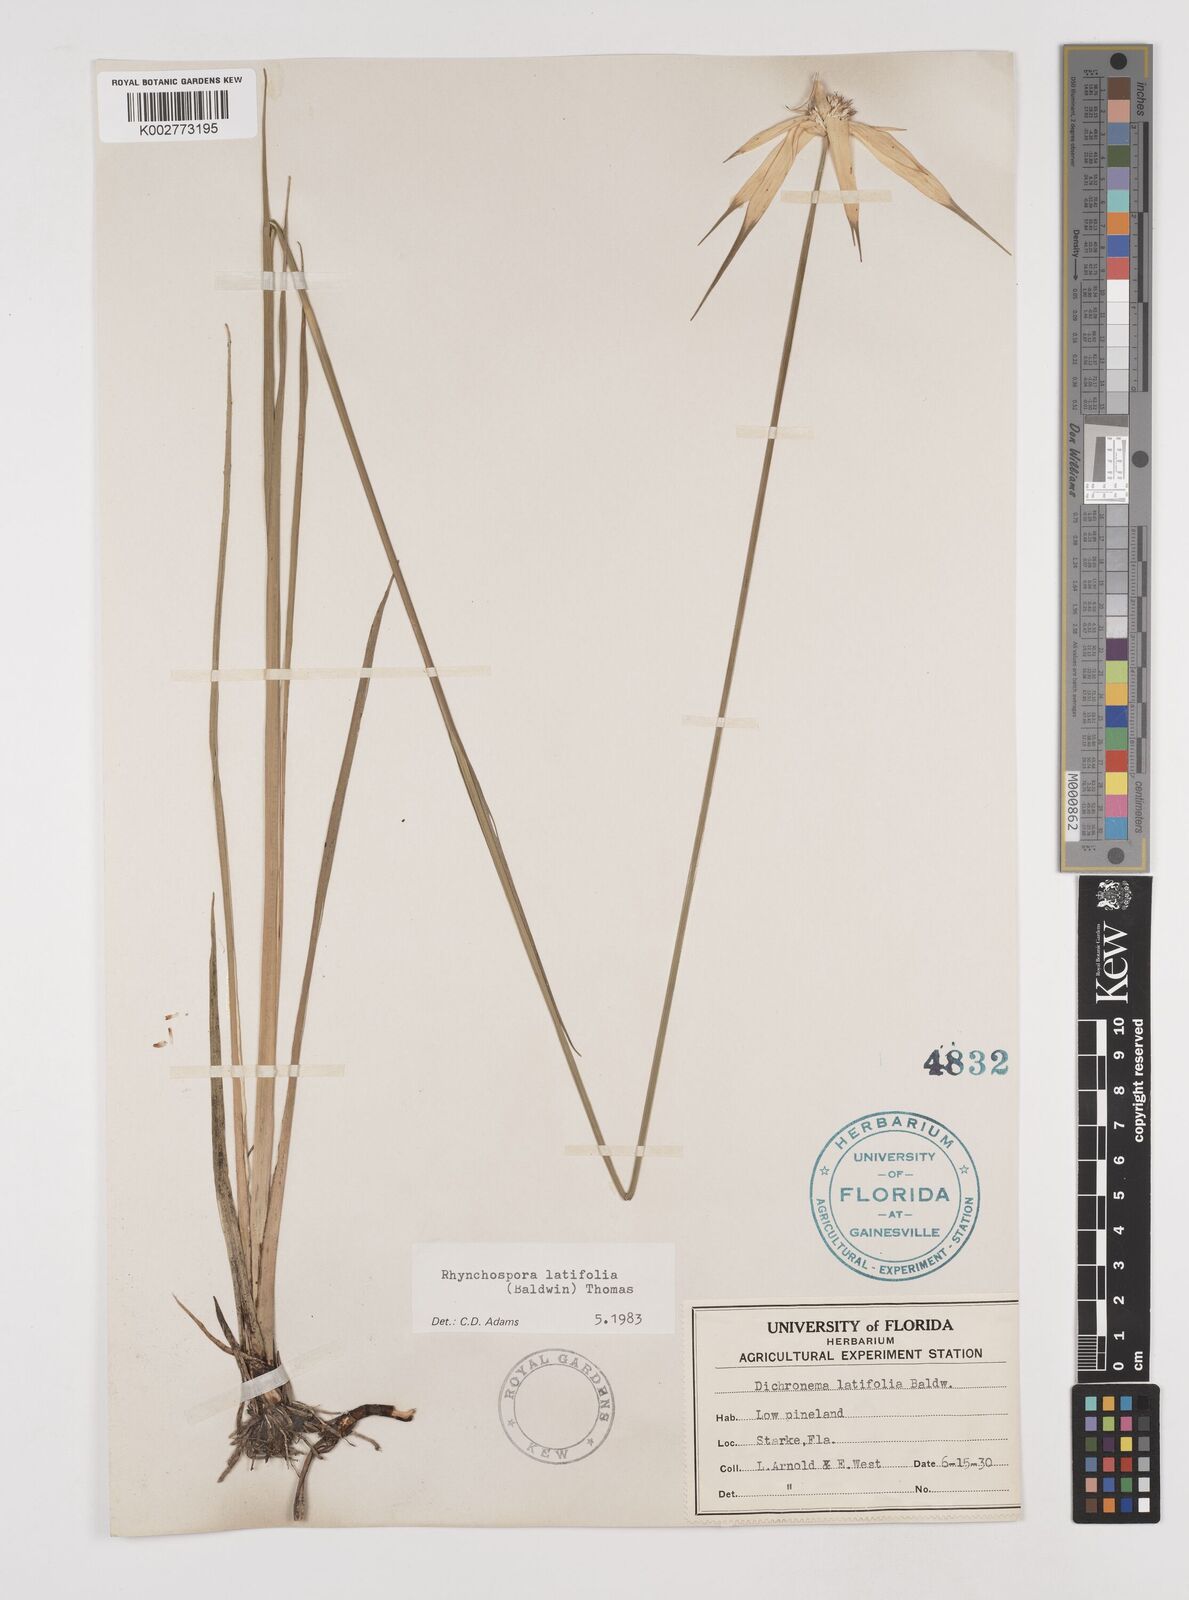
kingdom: Plantae
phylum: Tracheophyta
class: Liliopsida
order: Poales
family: Cyperaceae
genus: Rhynchospora
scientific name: Rhynchospora latifolia
